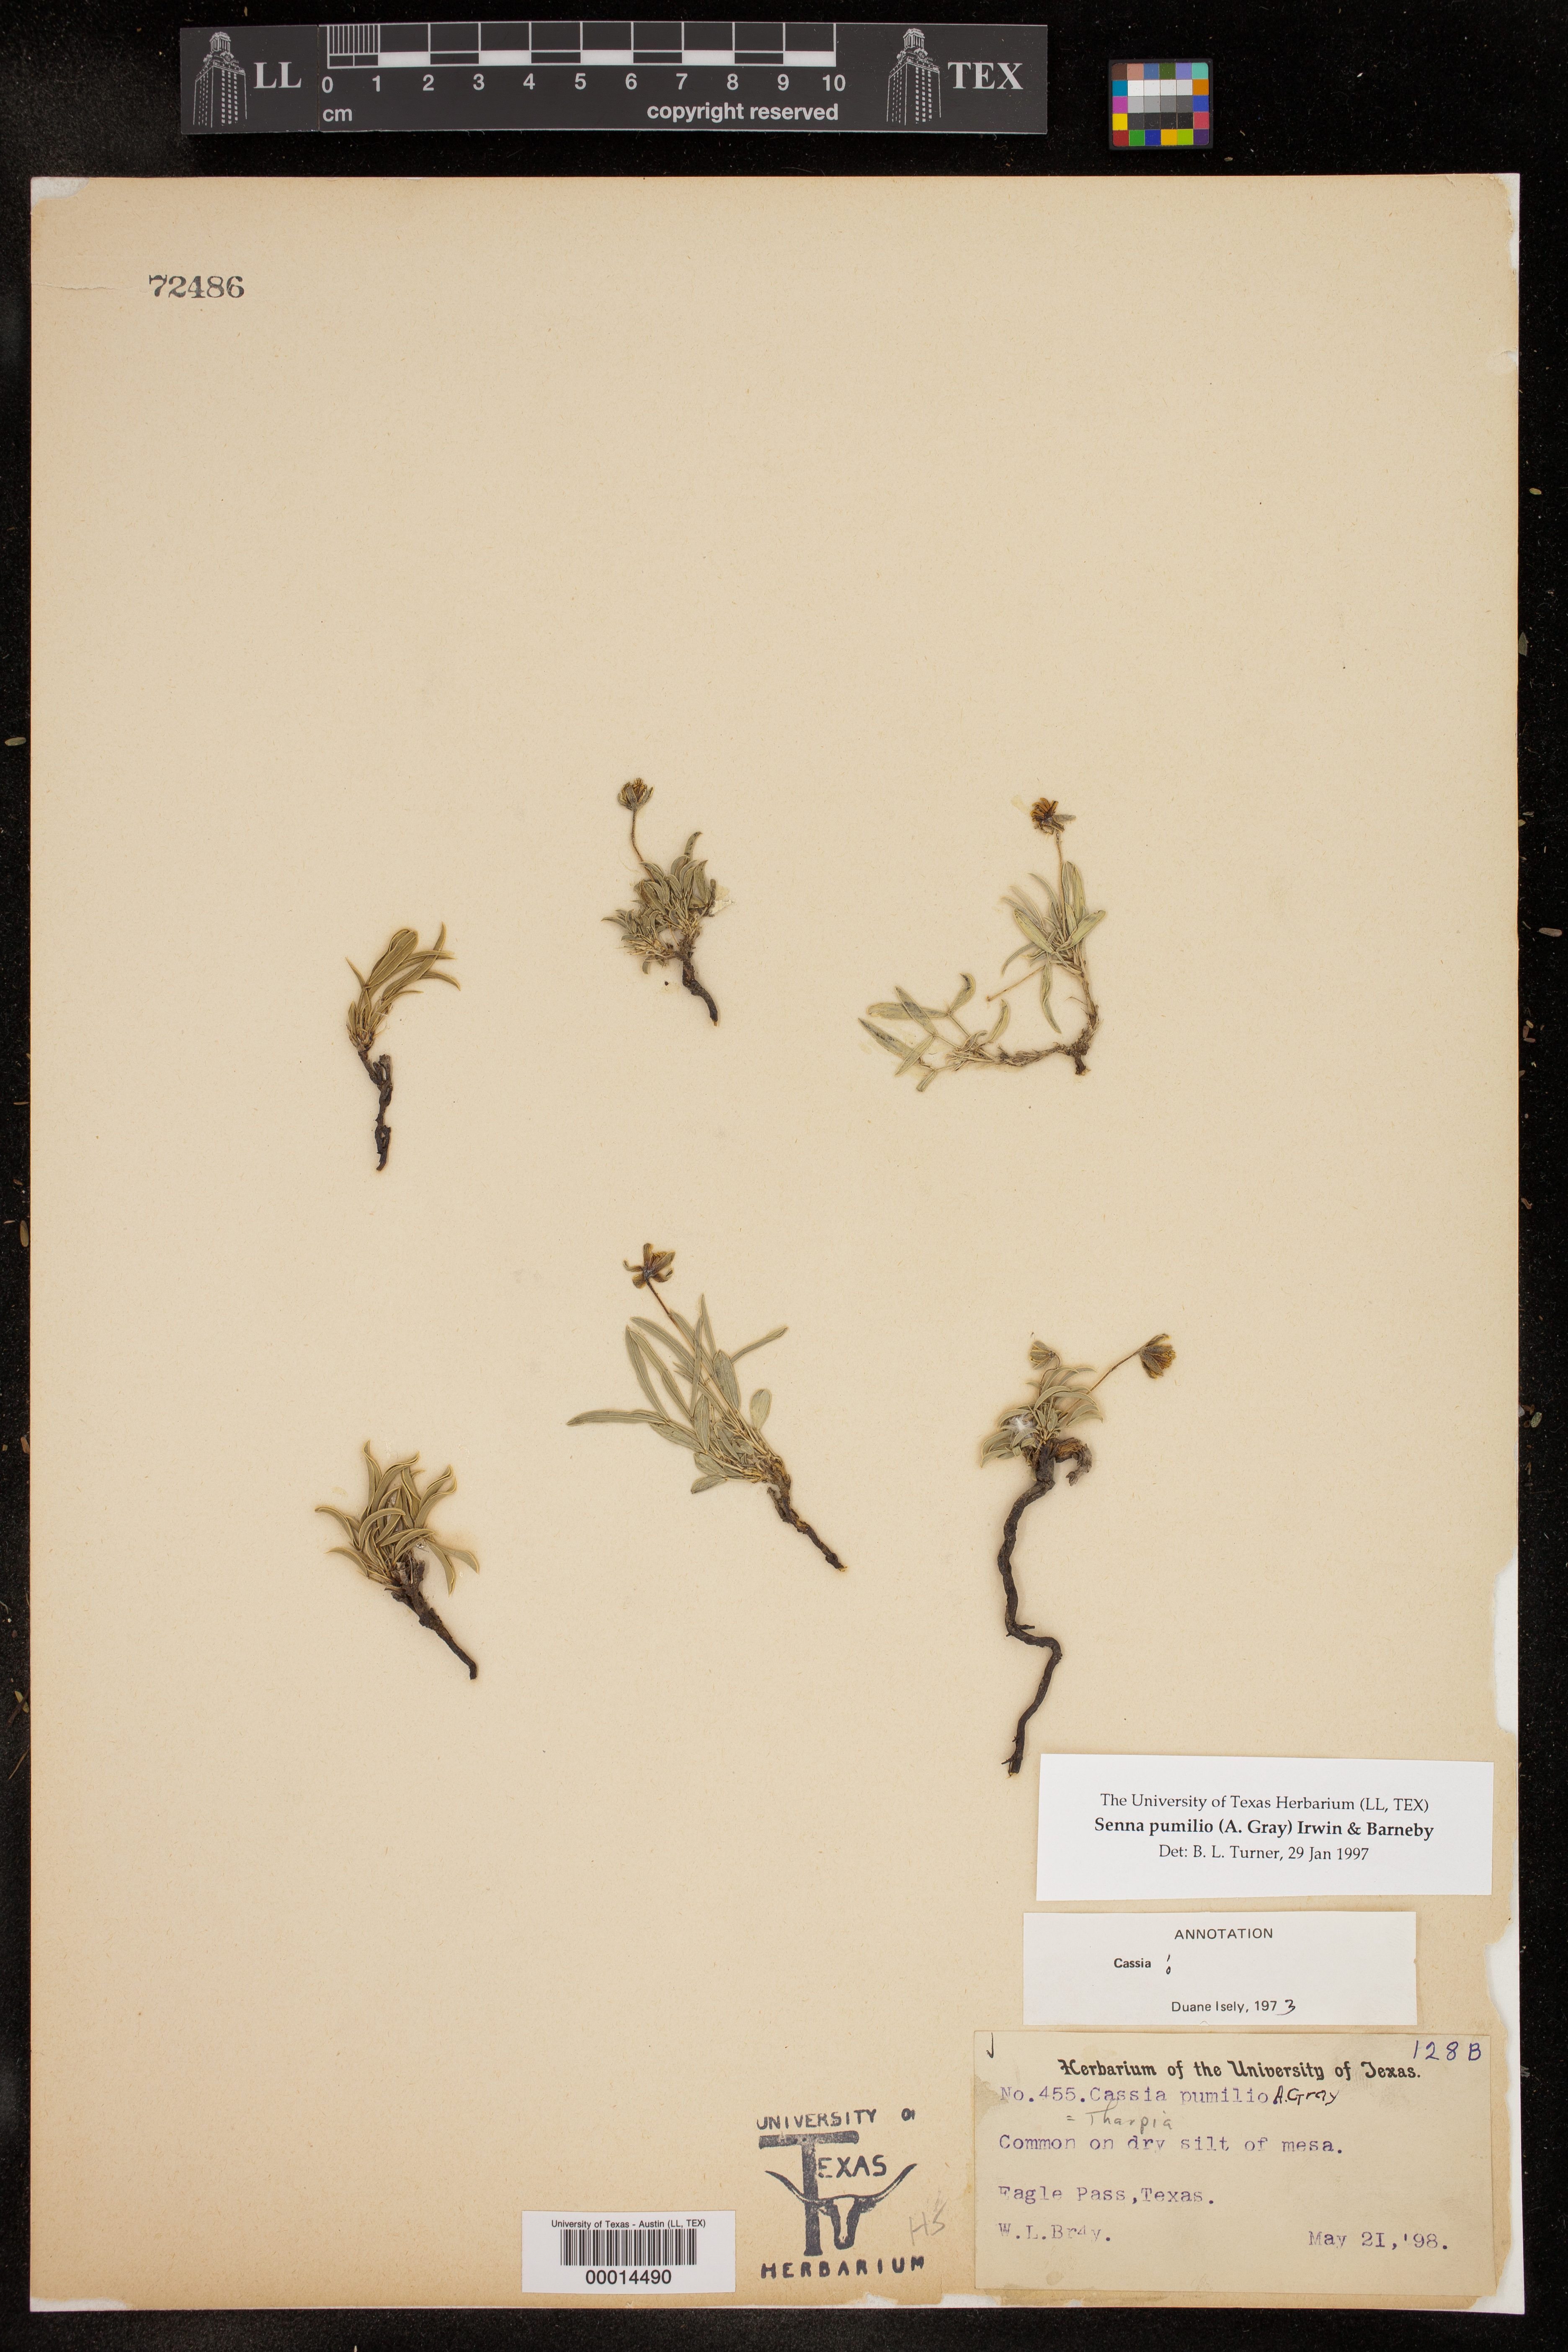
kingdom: Plantae
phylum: Tracheophyta
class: Magnoliopsida
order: Fabales
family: Fabaceae
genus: Senna
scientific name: Senna pumilio
